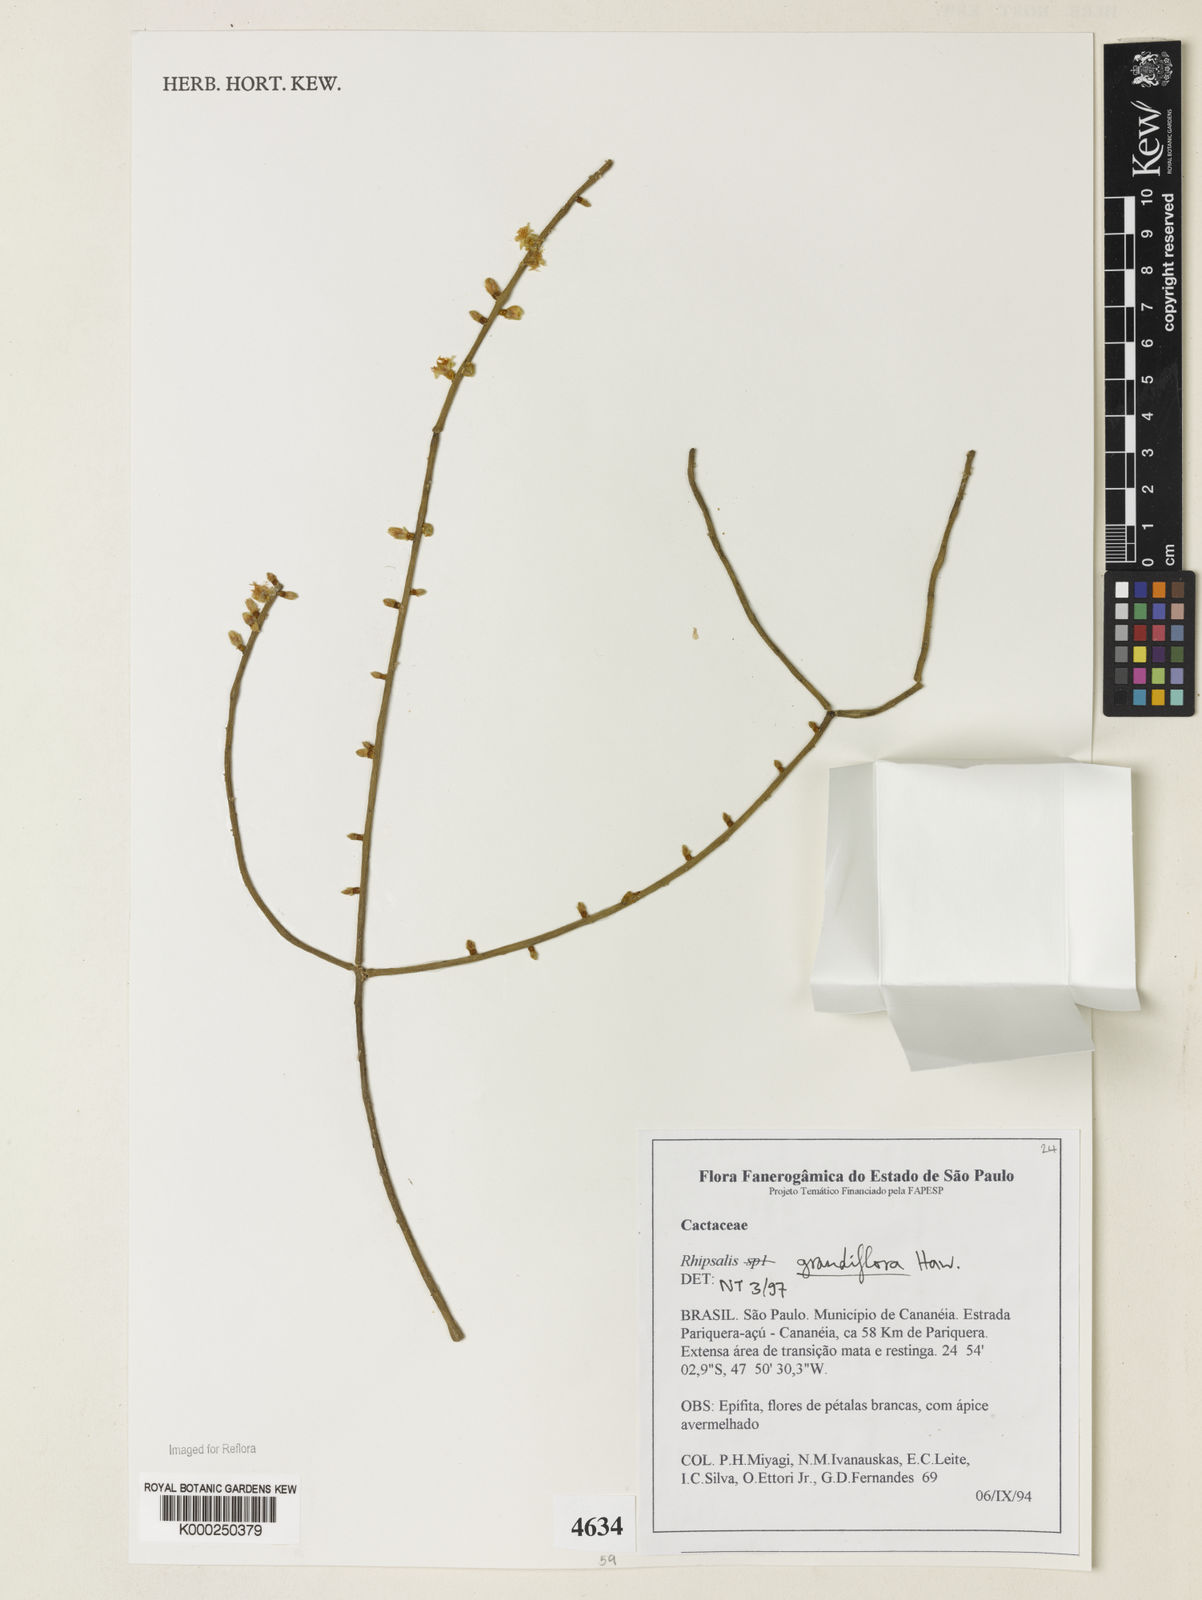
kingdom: Plantae
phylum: Tracheophyta
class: Magnoliopsida
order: Caryophyllales
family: Cactaceae
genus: Rhipsalis
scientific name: Rhipsalis grandiflora
